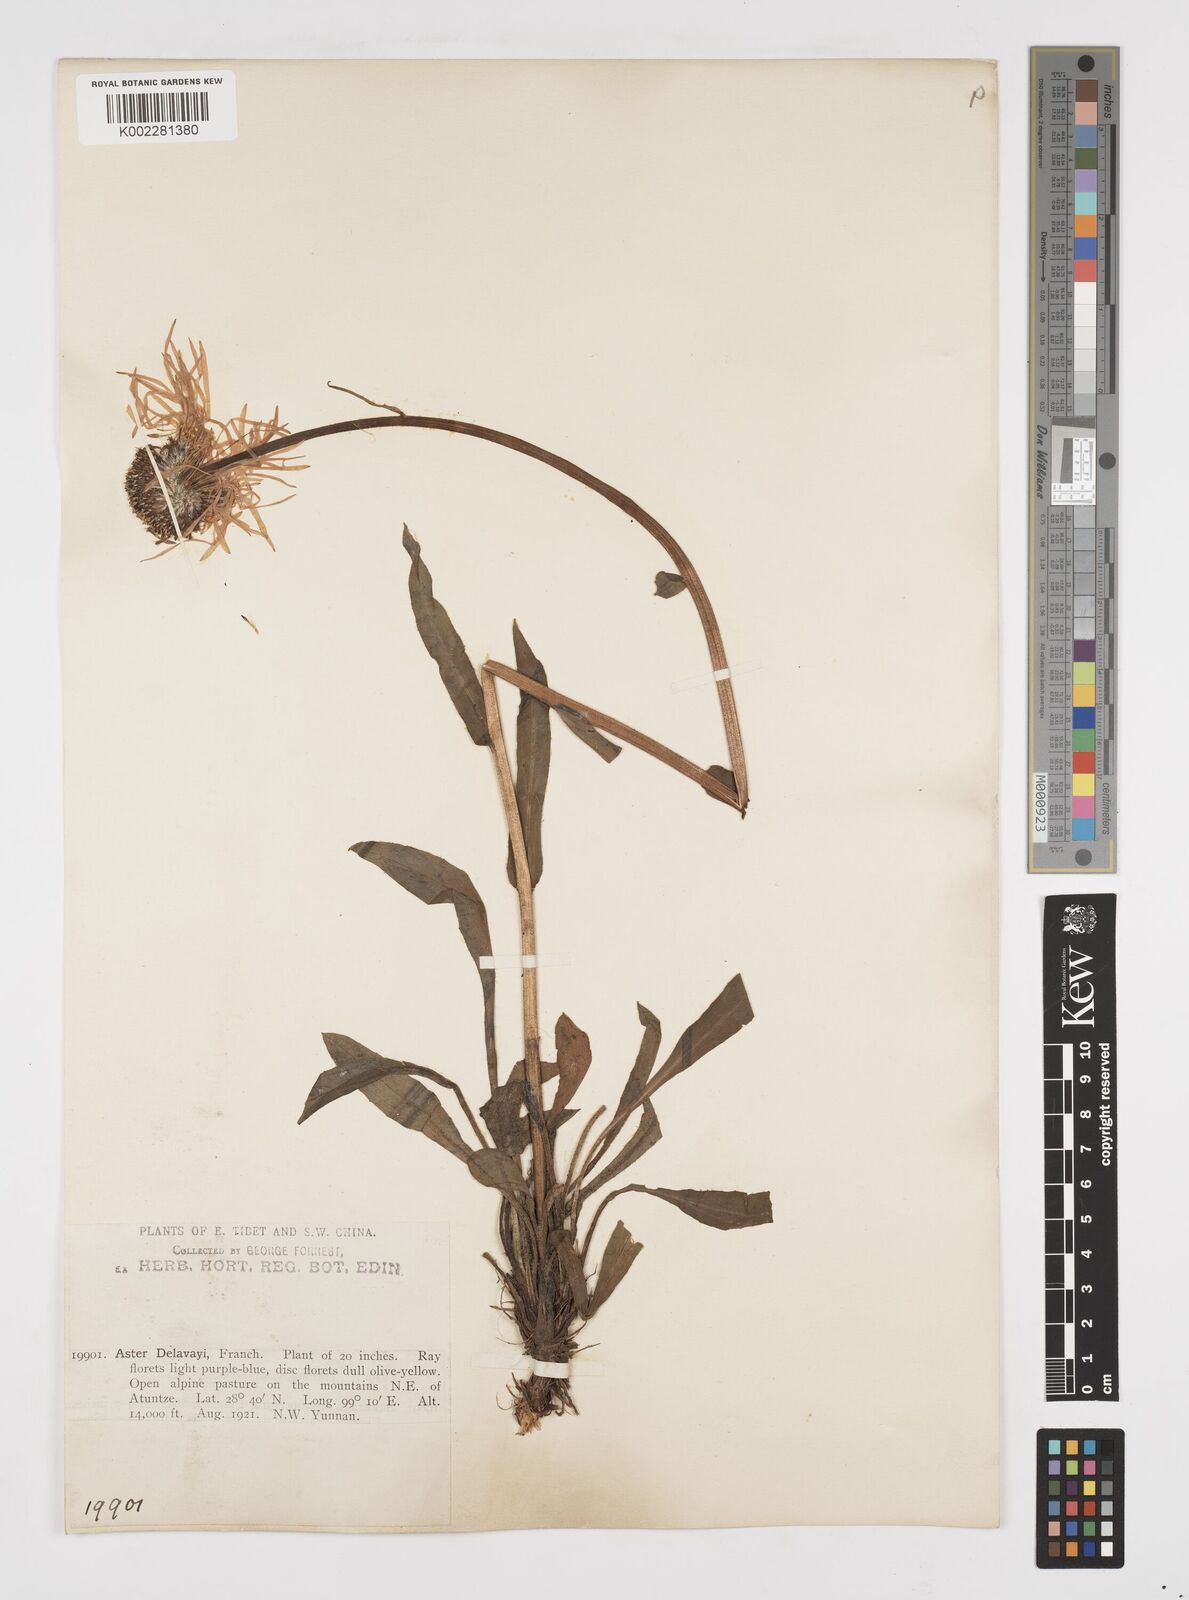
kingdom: Plantae
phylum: Tracheophyta
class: Magnoliopsida
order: Asterales
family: Asteraceae
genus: Tibetiodes
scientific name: Tibetiodes diplostephioides
